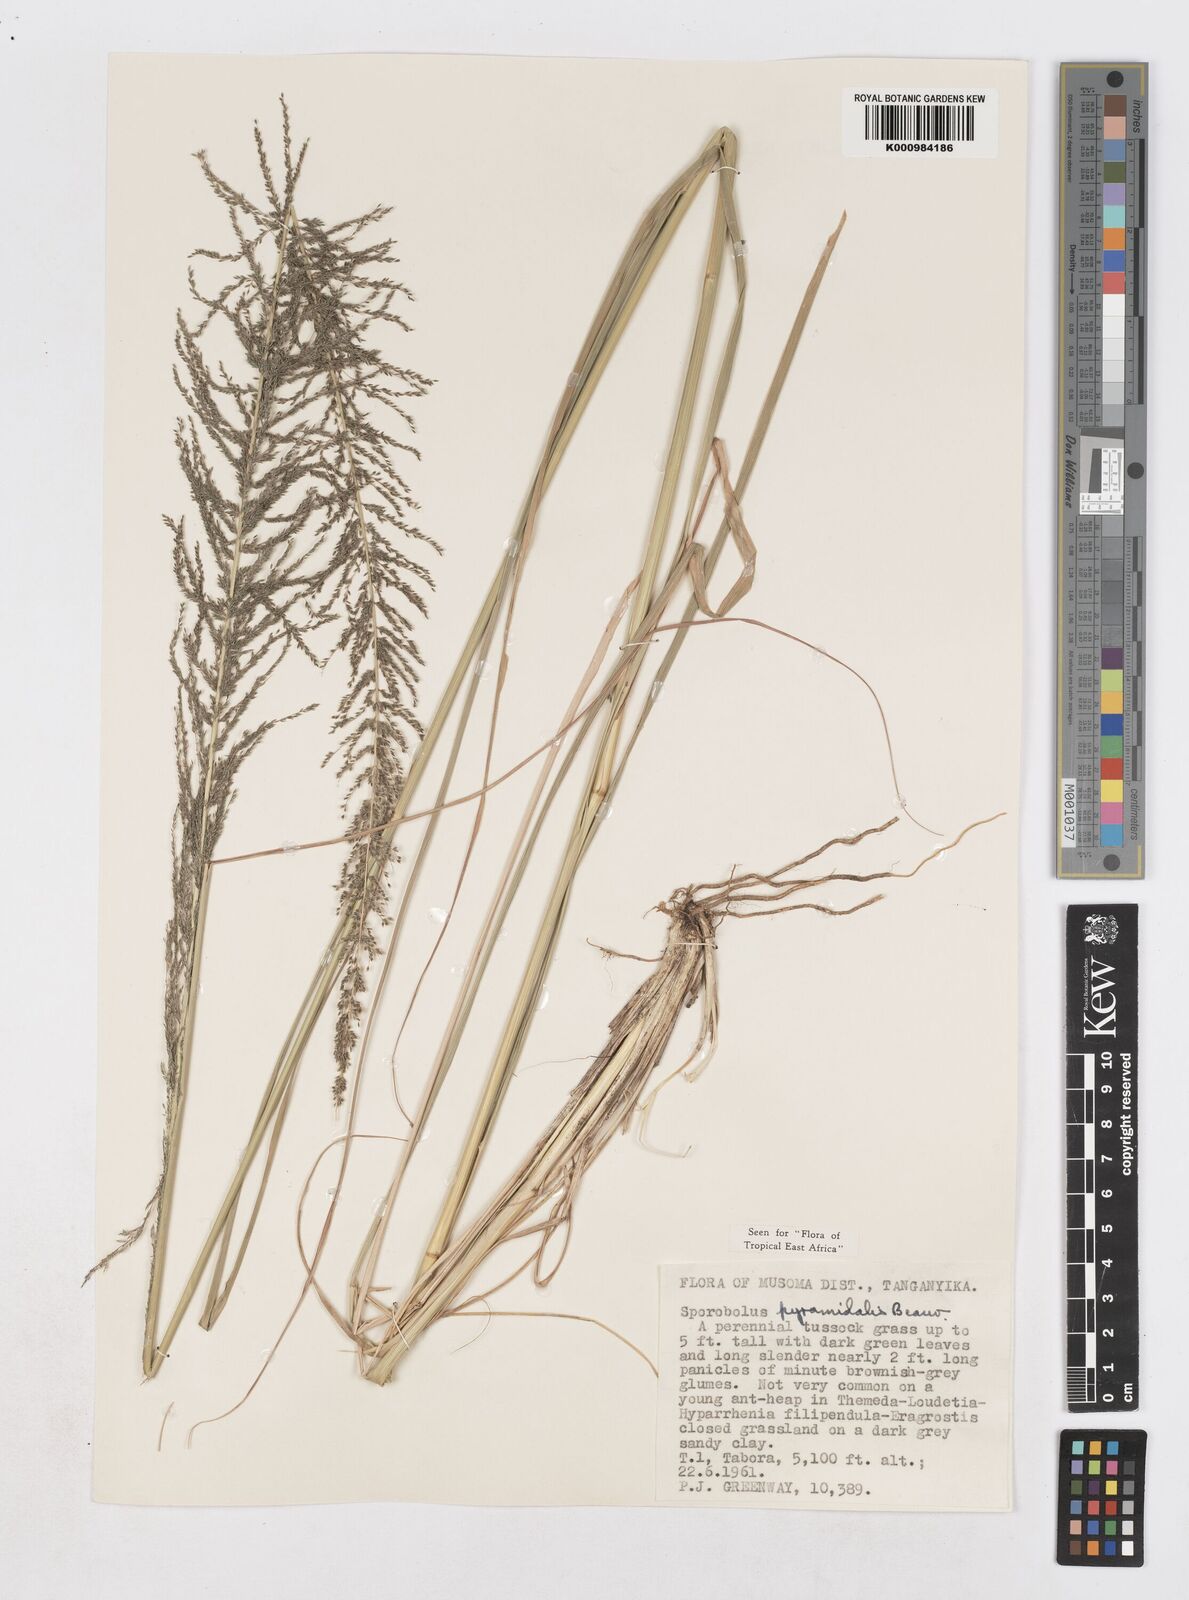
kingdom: Plantae
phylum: Tracheophyta
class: Liliopsida
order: Poales
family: Poaceae
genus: Sporobolus
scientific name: Sporobolus pyramidalis
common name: West indian dropseed
